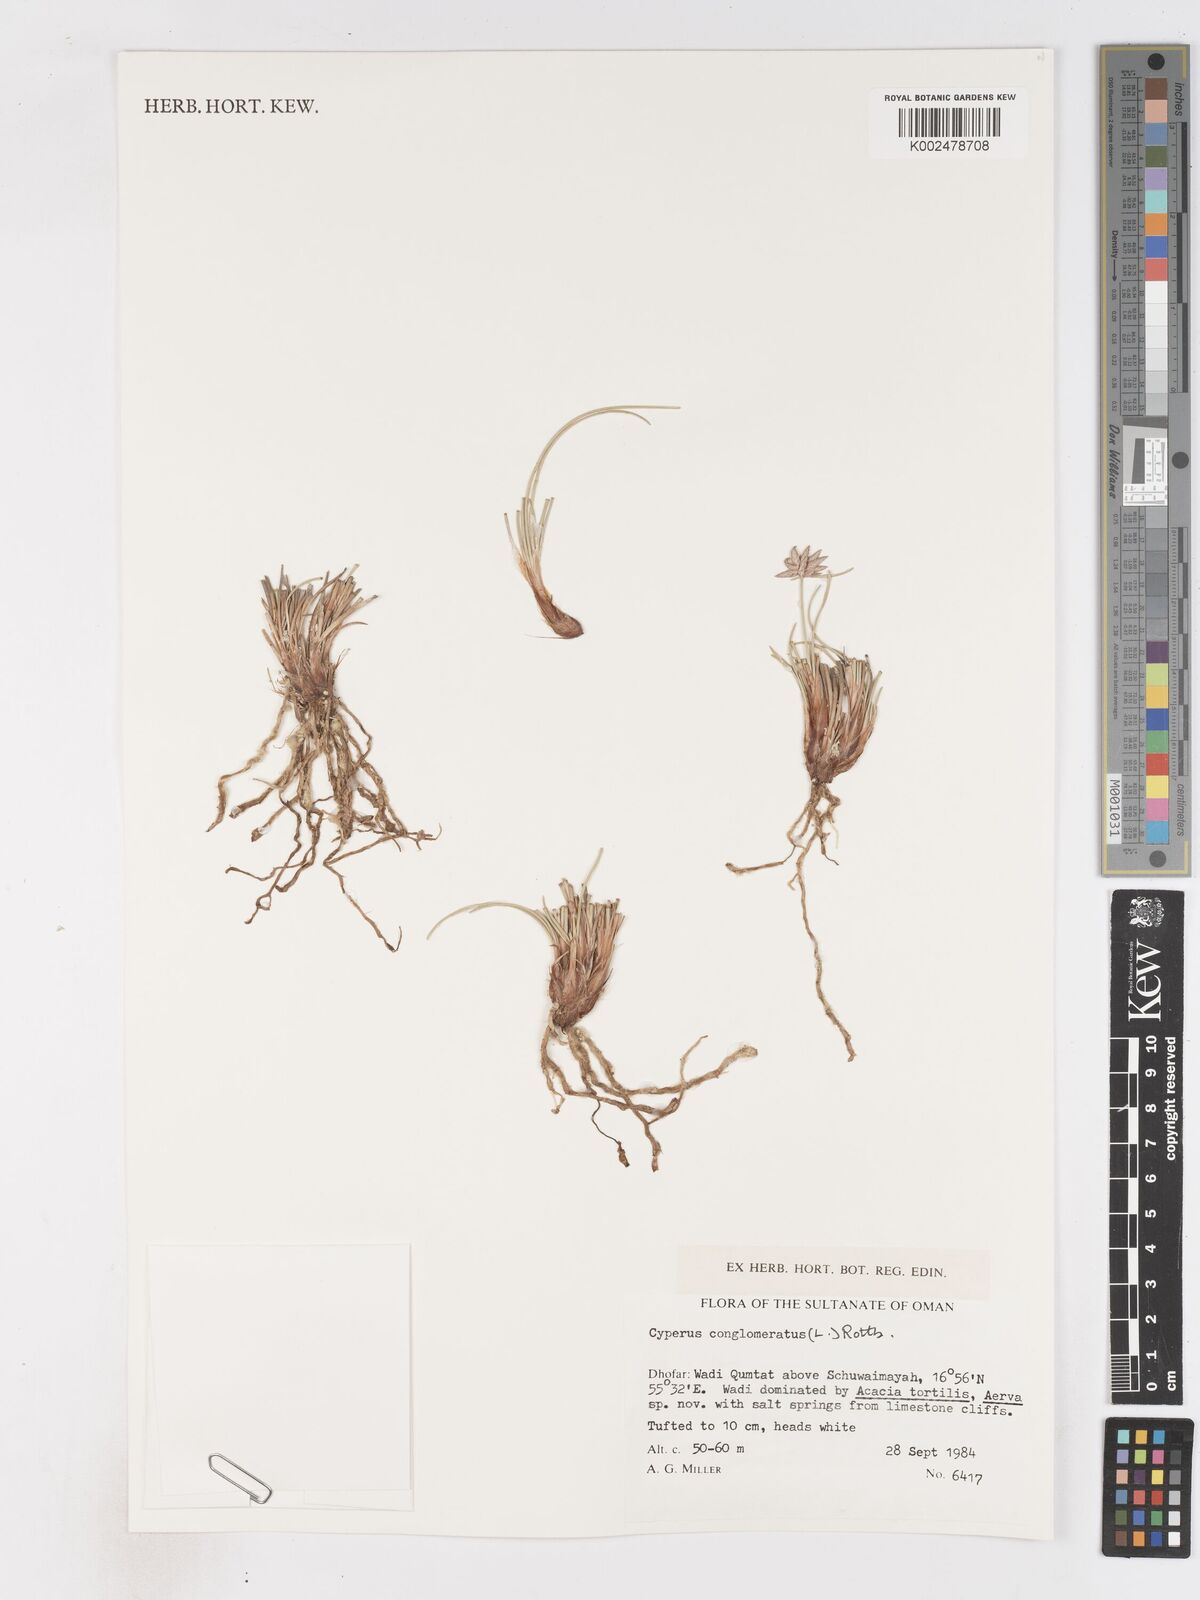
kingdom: Plantae
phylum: Tracheophyta
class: Liliopsida
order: Poales
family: Cyperaceae
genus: Cyperus
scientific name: Cyperus conglomeratus
